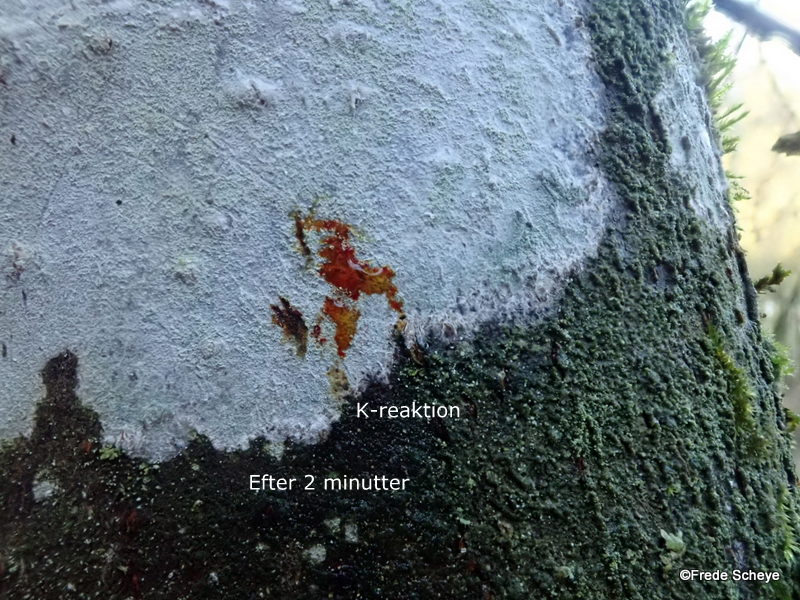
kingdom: Fungi
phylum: Ascomycota
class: Lecanoromycetes
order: Ostropales
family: Phlyctidaceae
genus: Phlyctis
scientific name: Phlyctis argena
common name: almindelig sølvlav
